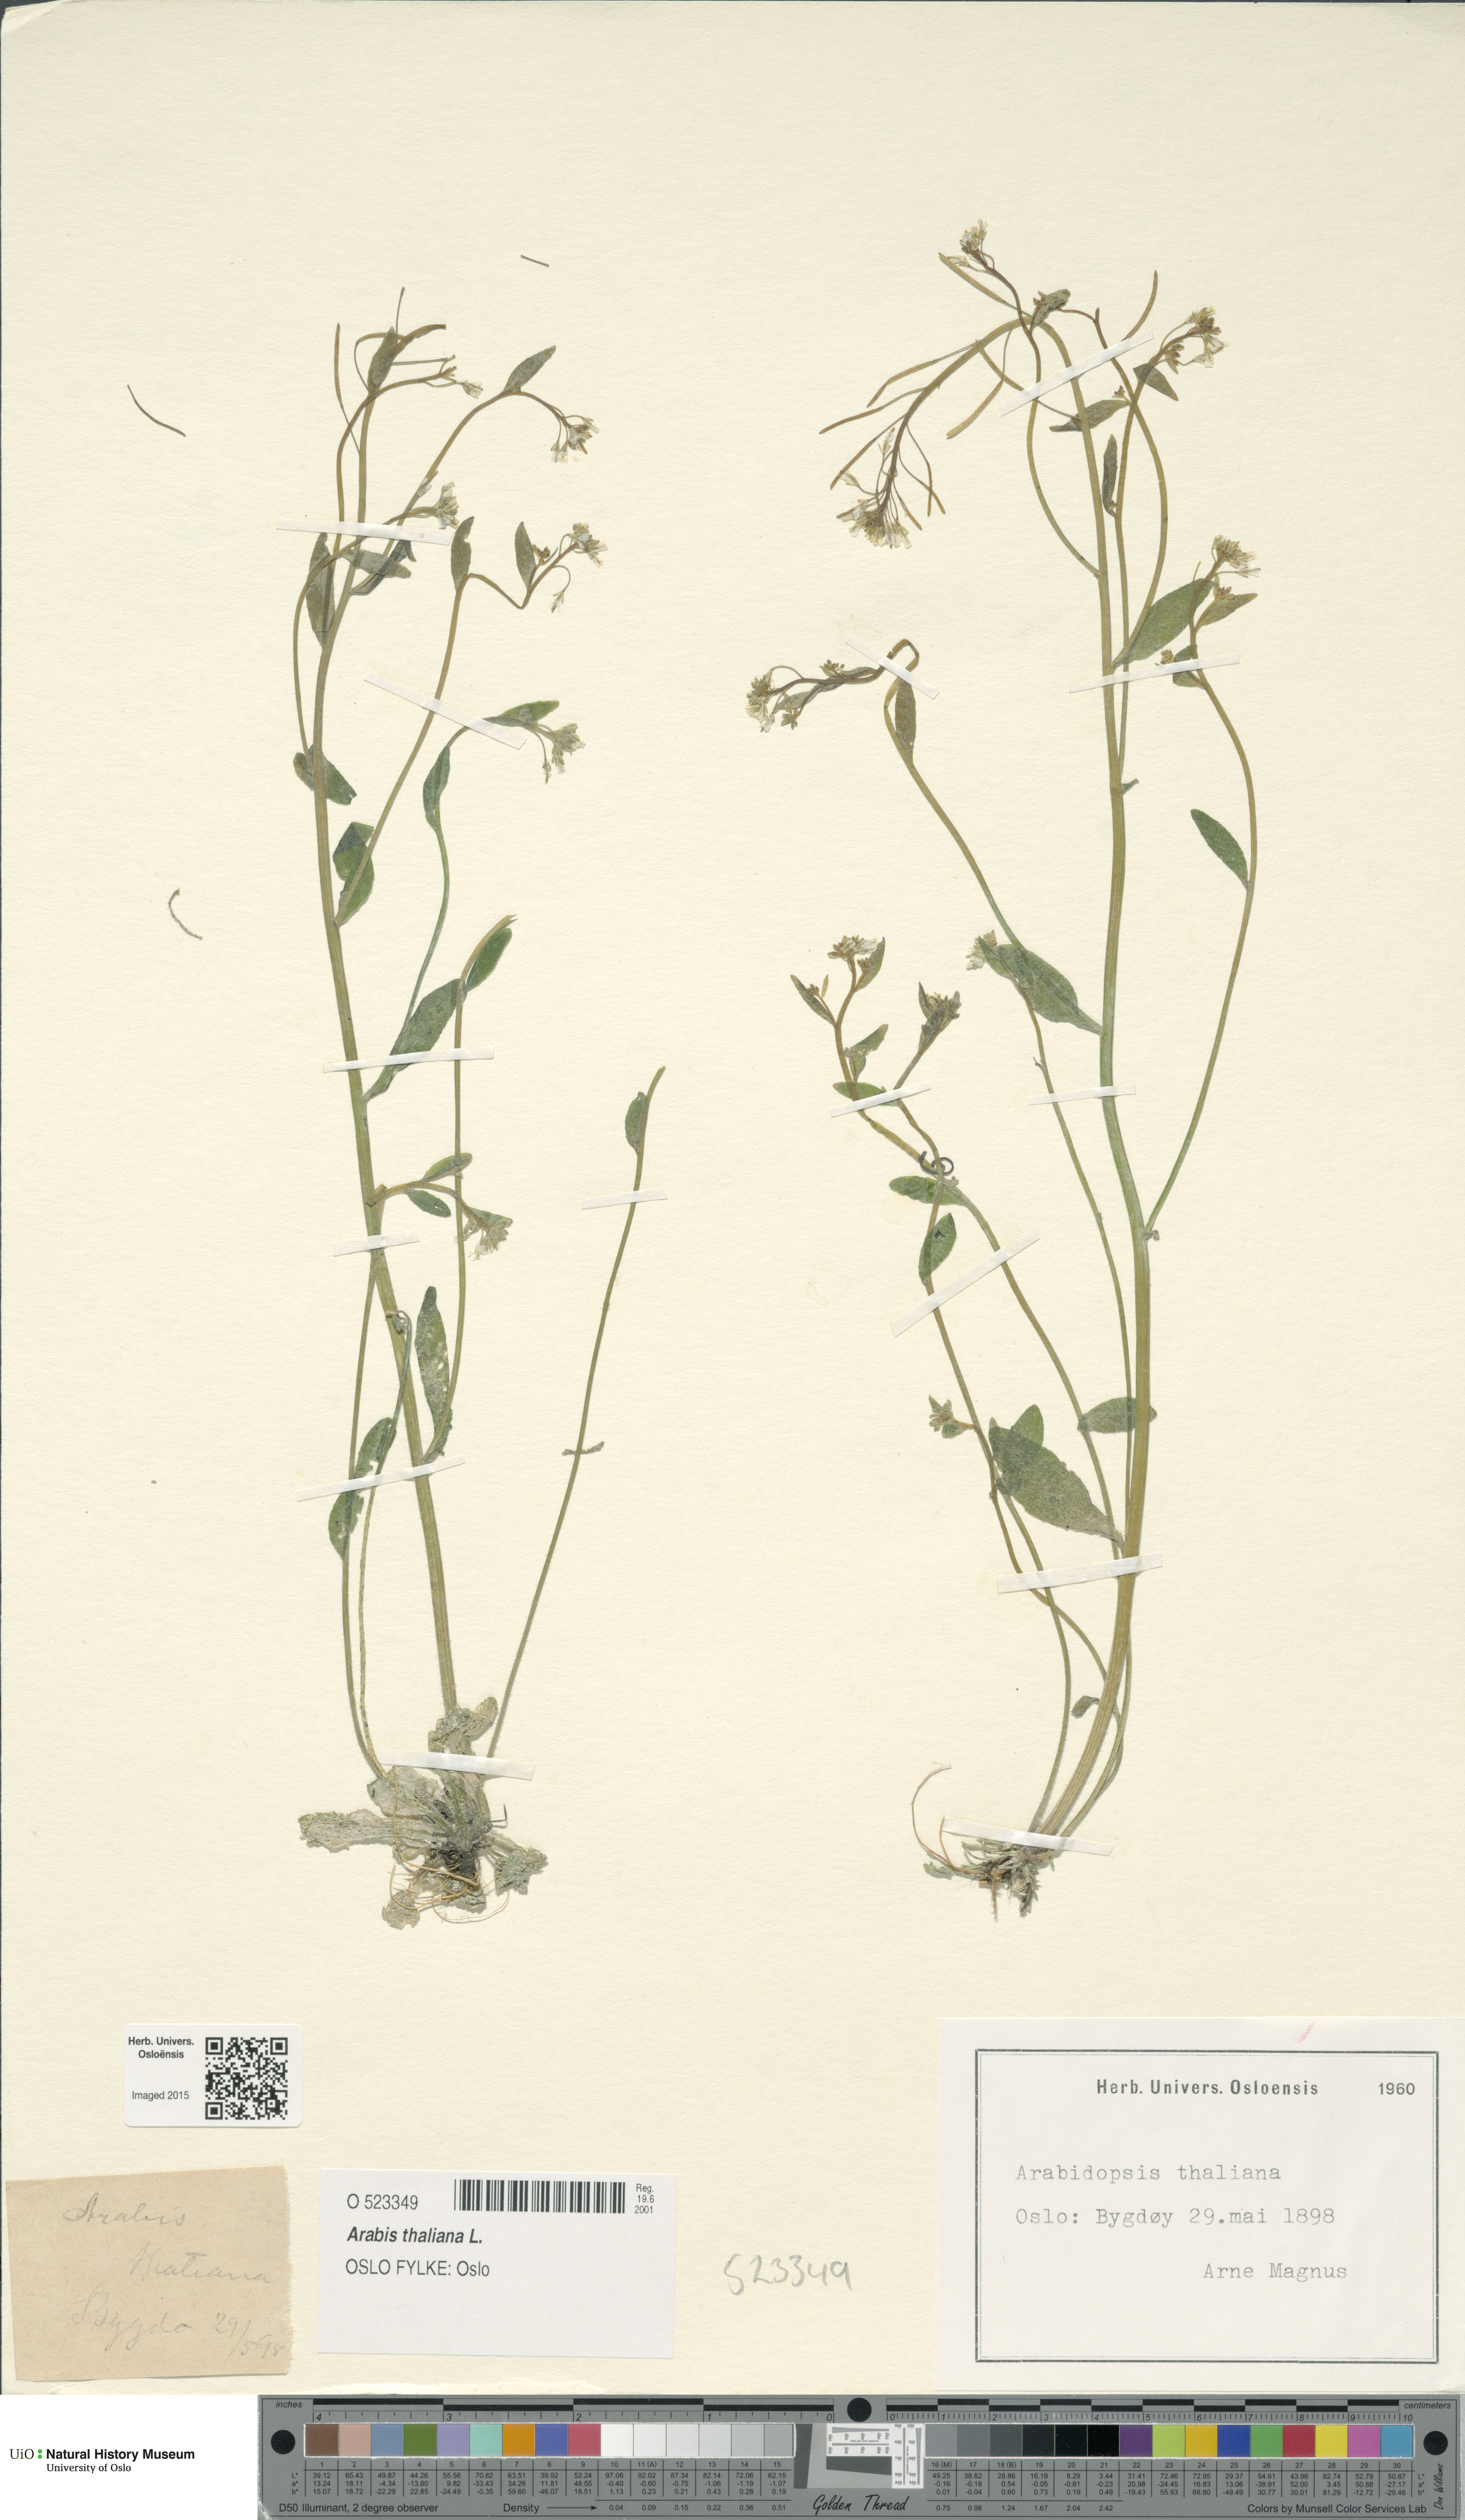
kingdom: Plantae
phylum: Tracheophyta
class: Magnoliopsida
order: Brassicales
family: Brassicaceae
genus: Arabidopsis
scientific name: Arabidopsis thaliana
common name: Thale cress
